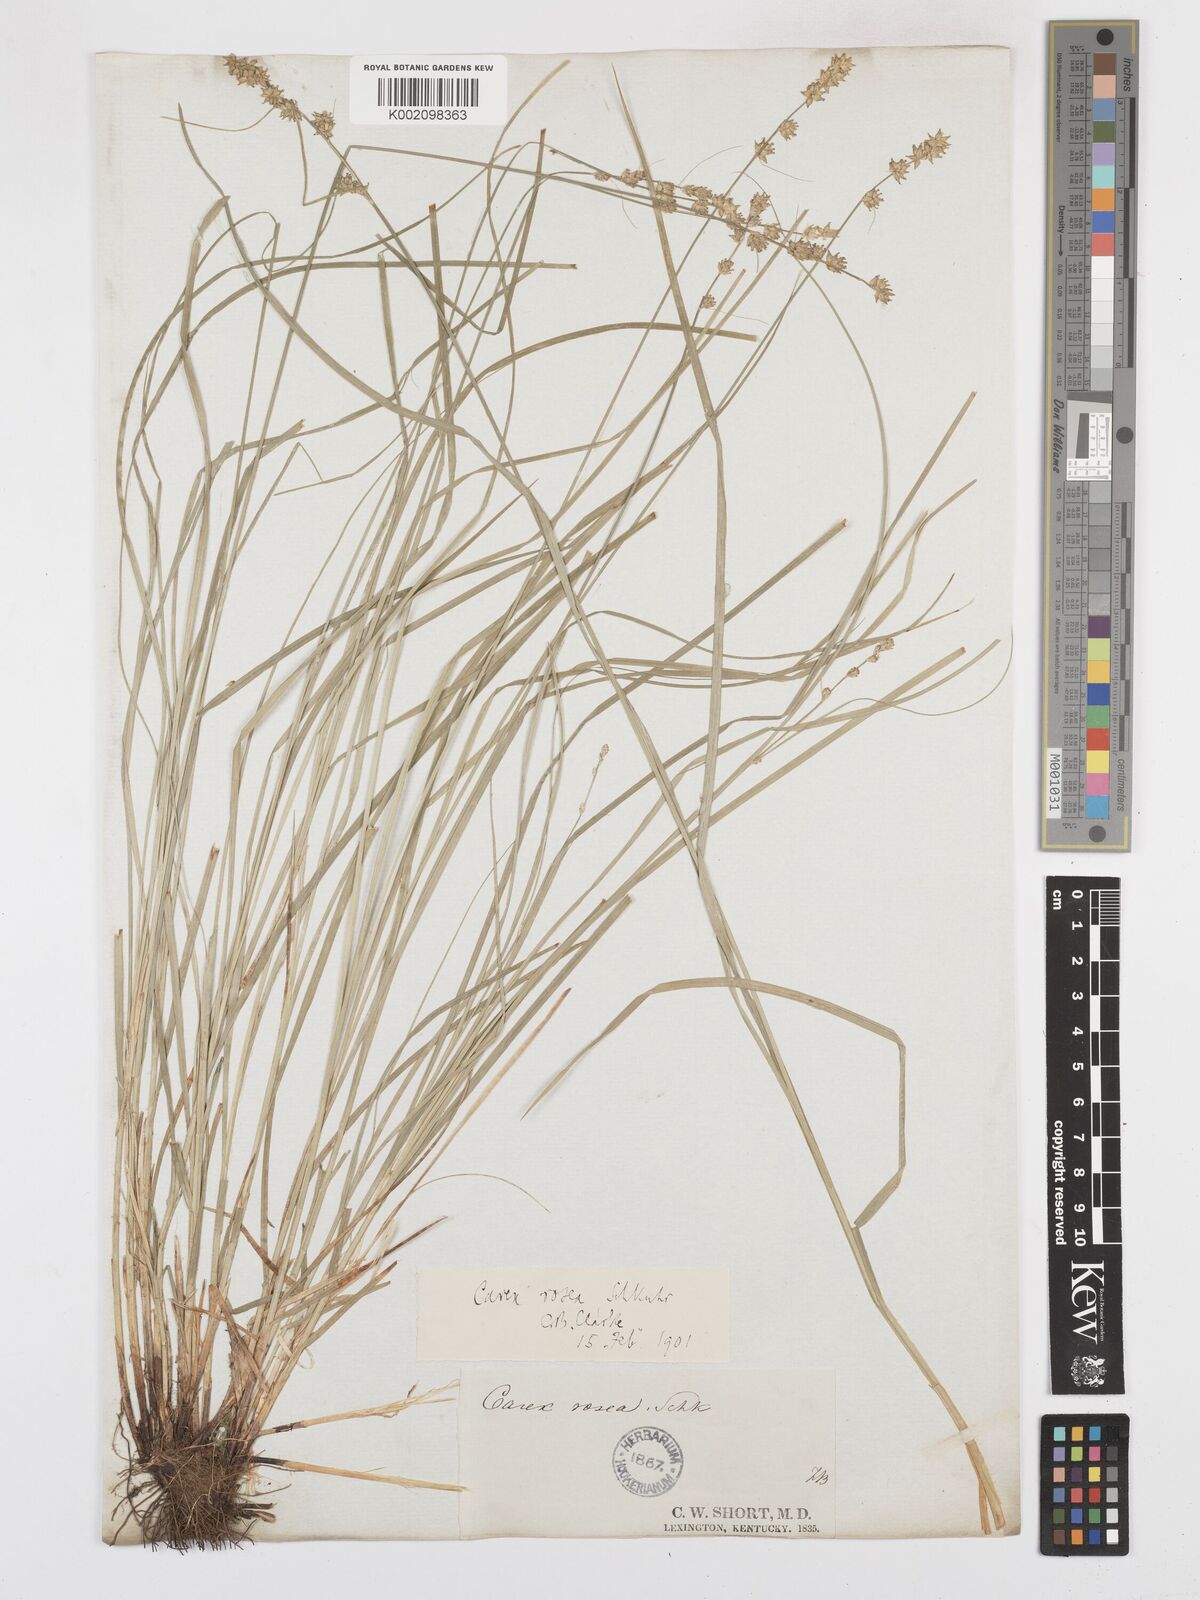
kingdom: Plantae
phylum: Tracheophyta
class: Liliopsida
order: Poales
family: Cyperaceae
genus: Carex
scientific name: Carex rosea
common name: Curly-styled wood sedge
